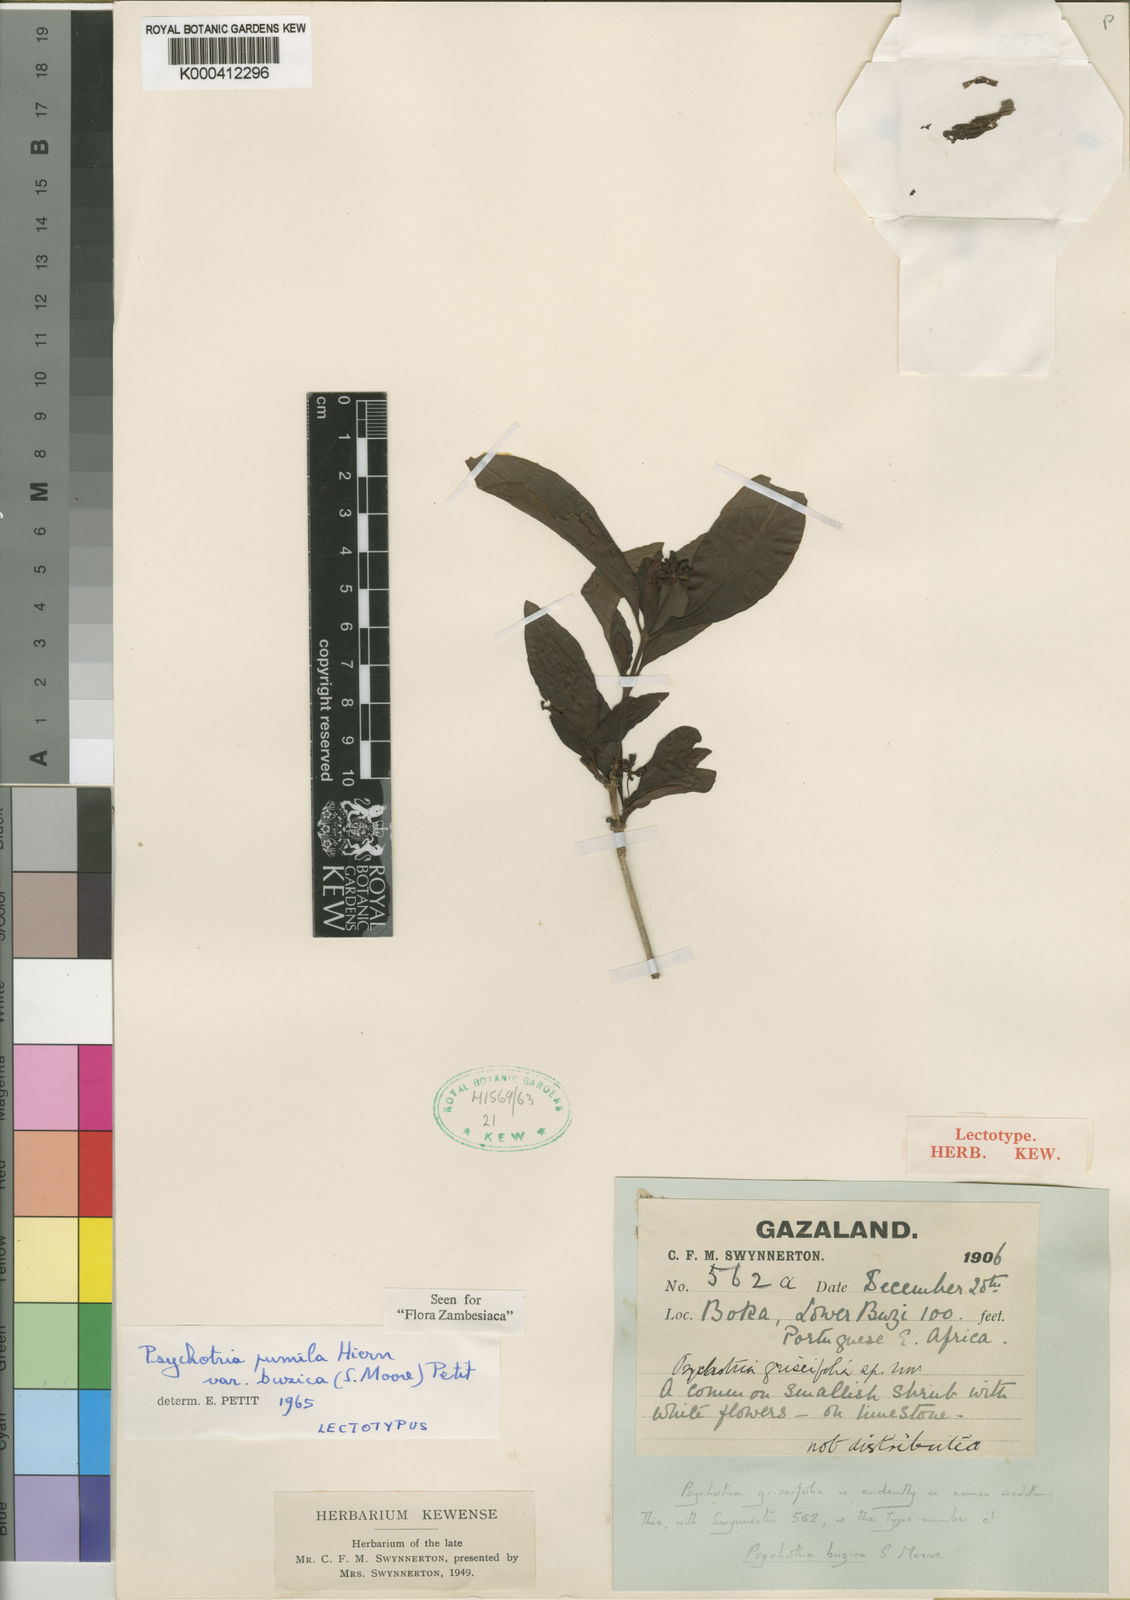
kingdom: Plantae
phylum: Tracheophyta
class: Magnoliopsida
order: Gentianales
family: Rubiaceae
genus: Psychotria
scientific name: Psychotria pumila
